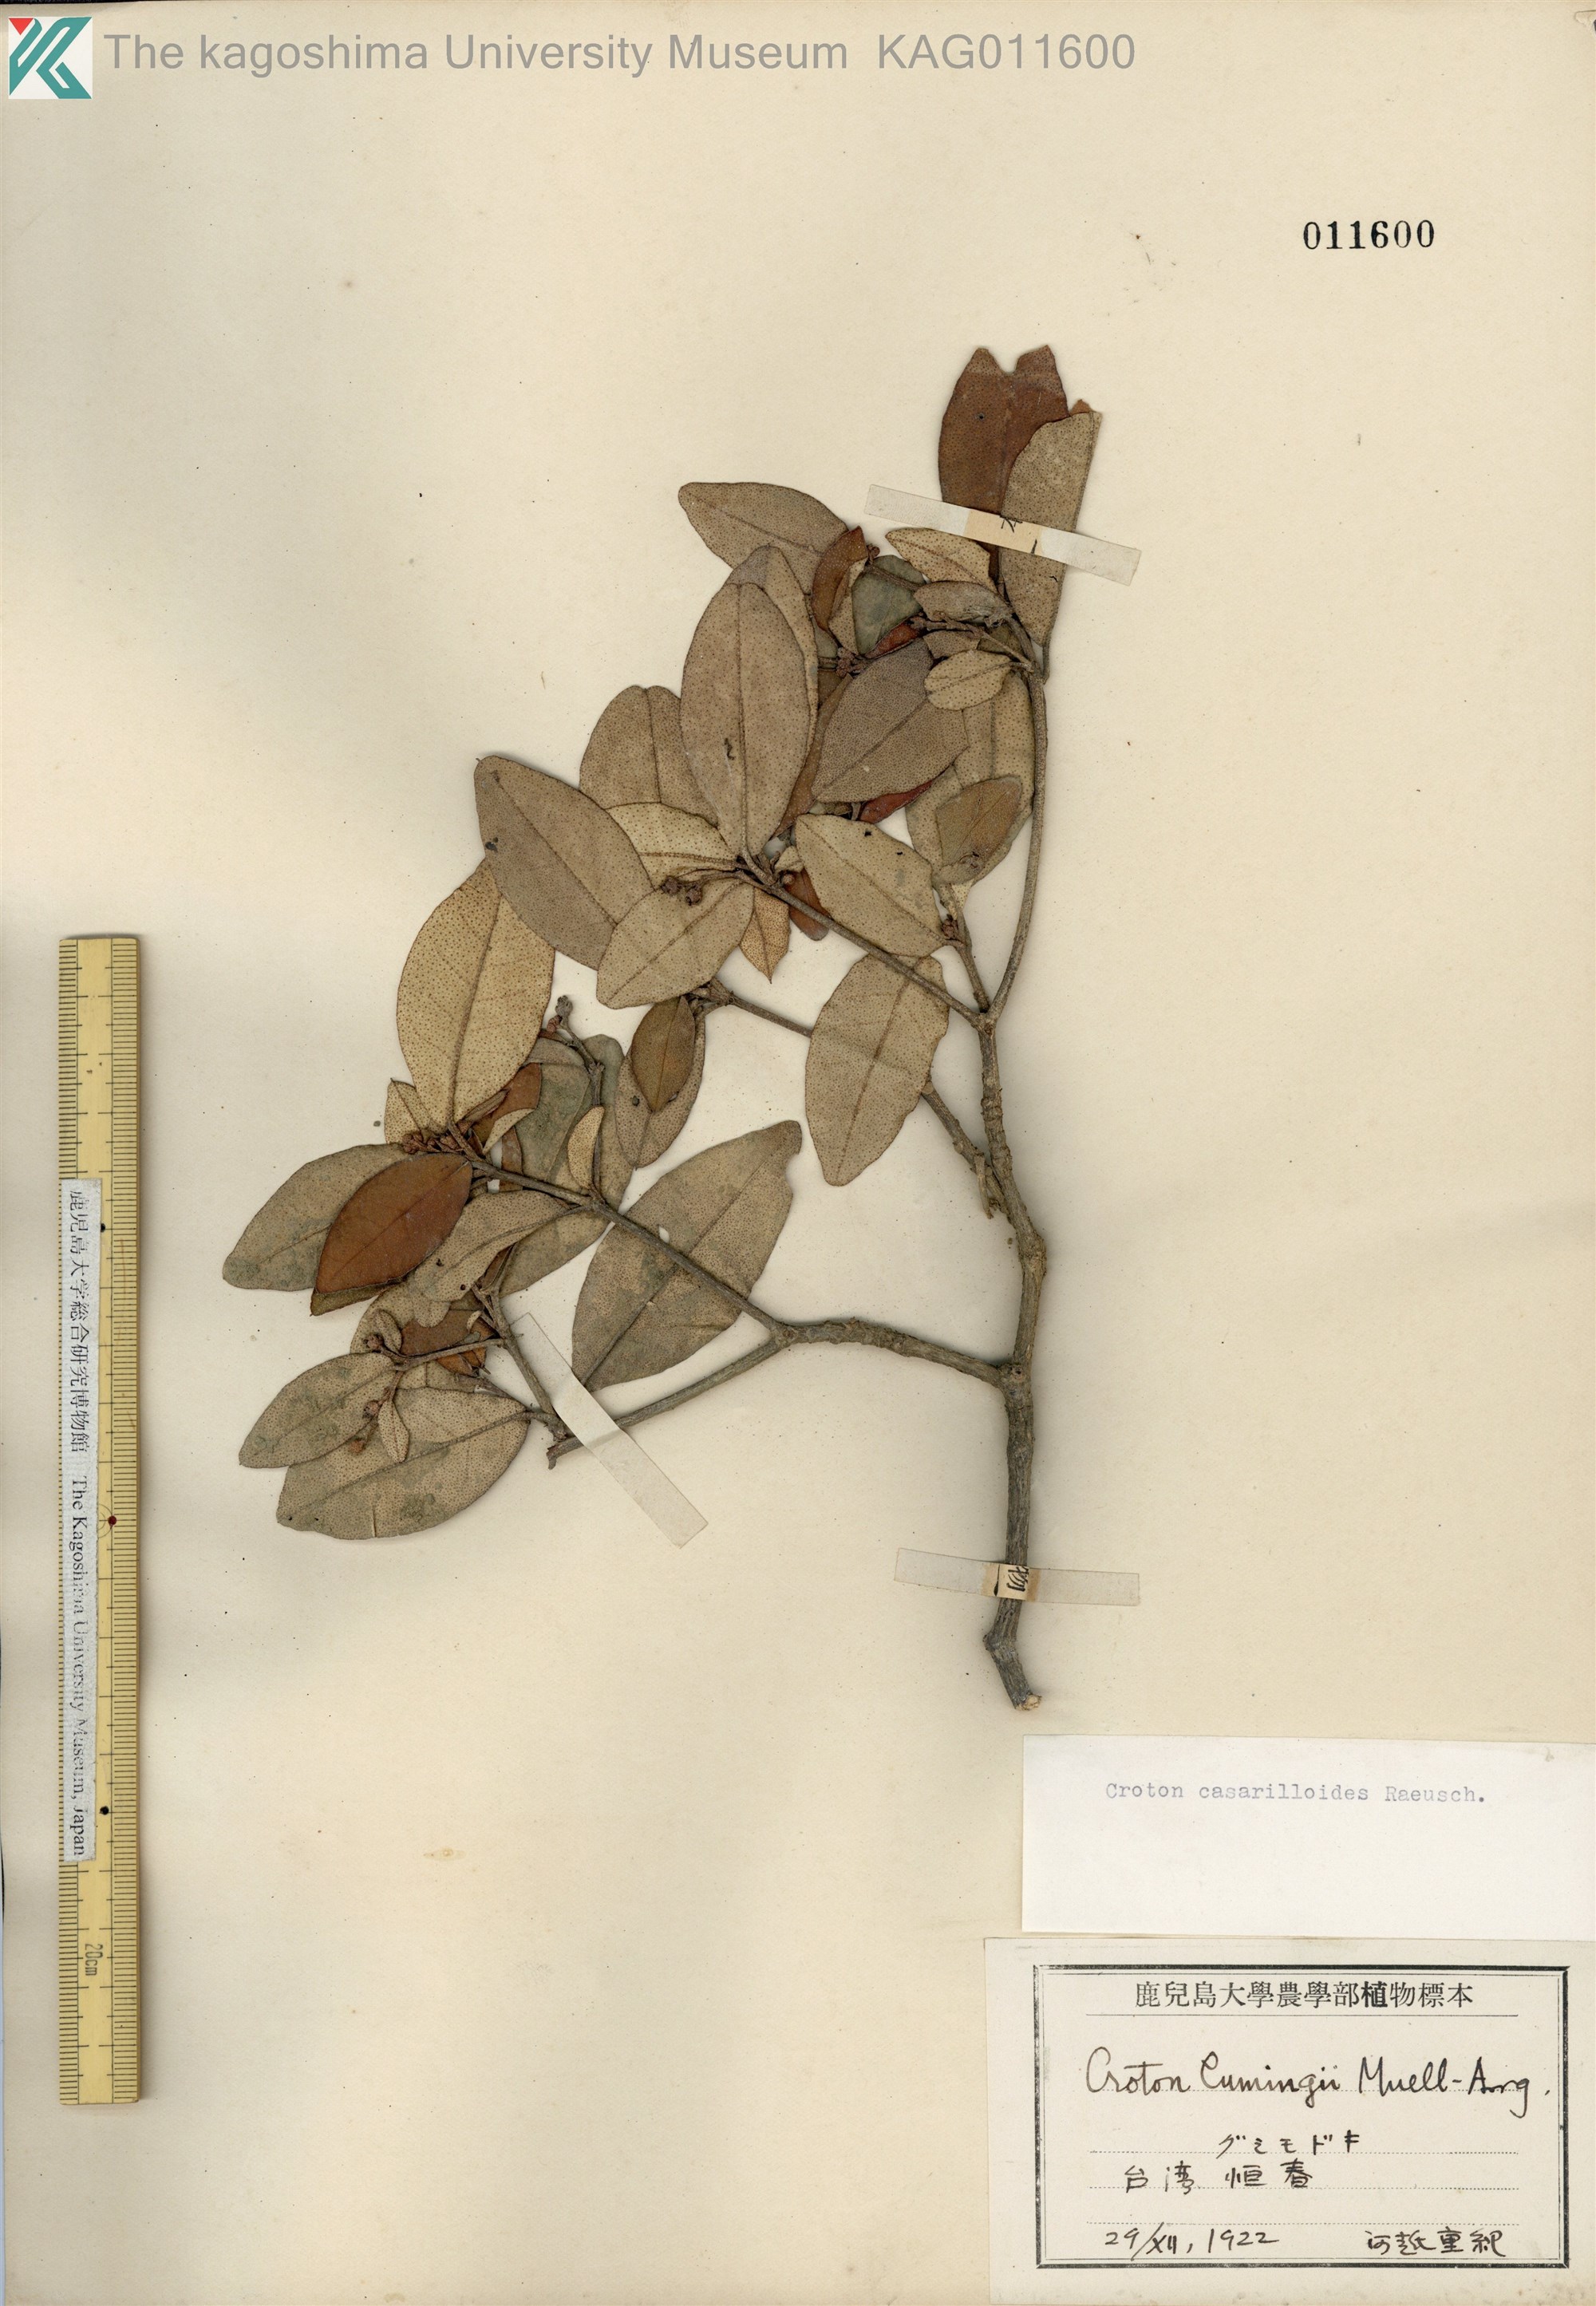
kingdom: Plantae
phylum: Tracheophyta
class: Magnoliopsida
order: Malpighiales
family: Euphorbiaceae
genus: Croton
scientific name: Croton cascarilloides
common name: グミモドキ
